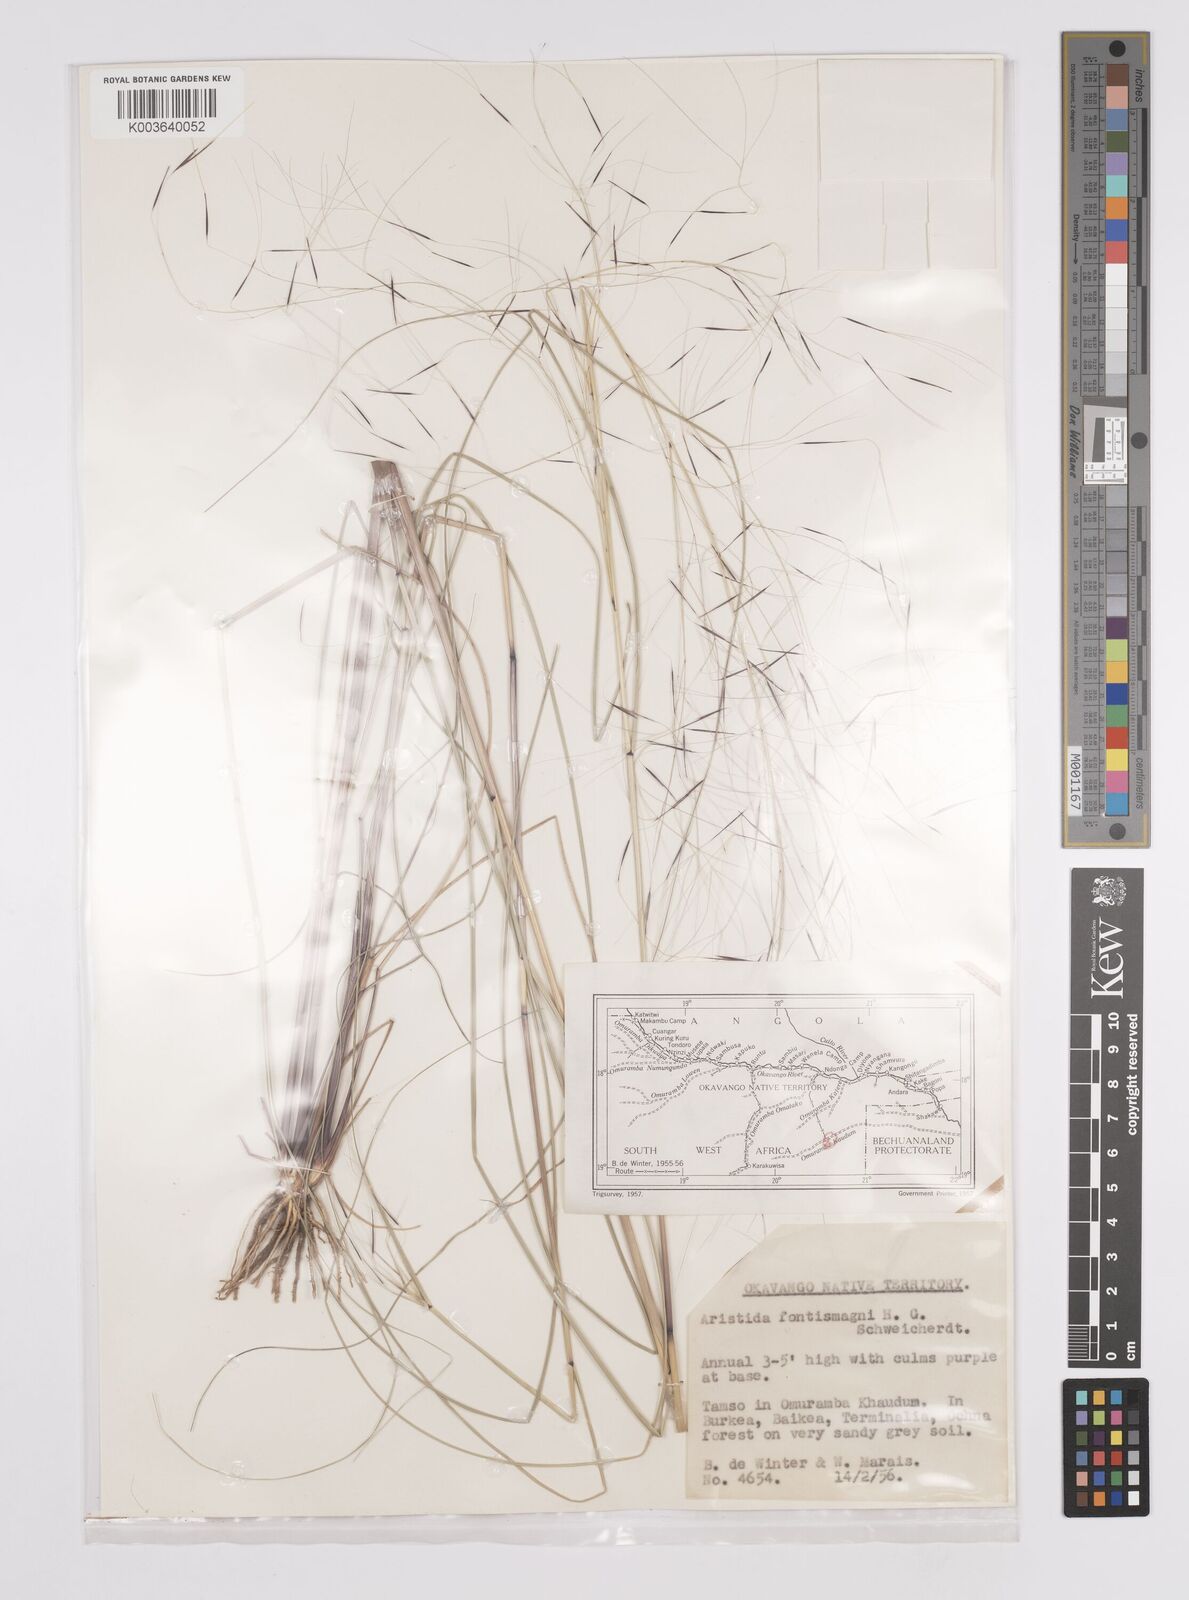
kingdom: Plantae
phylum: Tracheophyta
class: Liliopsida
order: Poales
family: Poaceae
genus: Aristida
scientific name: Aristida stipoides
